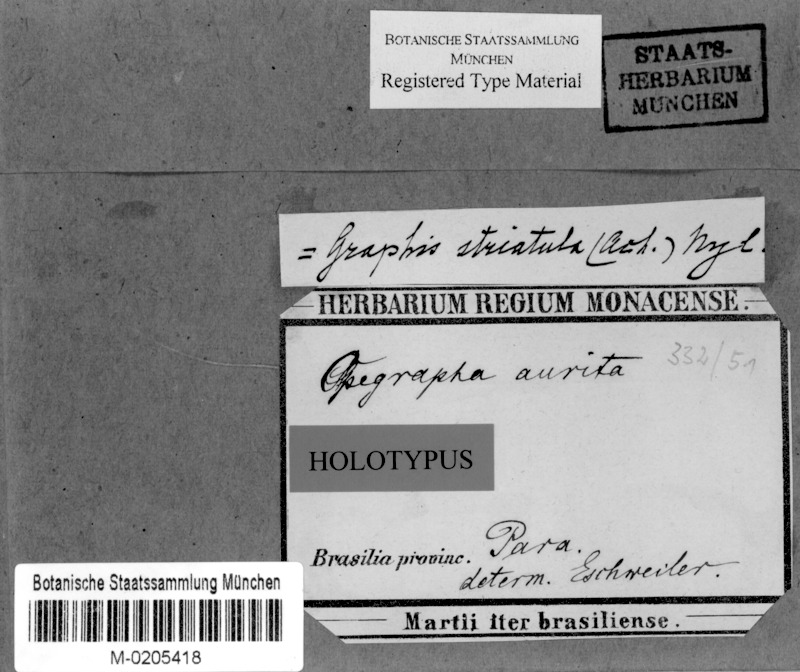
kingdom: Fungi
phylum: Ascomycota
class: Lecanoromycetes
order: Ostropales
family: Graphidaceae
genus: Allographa
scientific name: Allographa striatula
